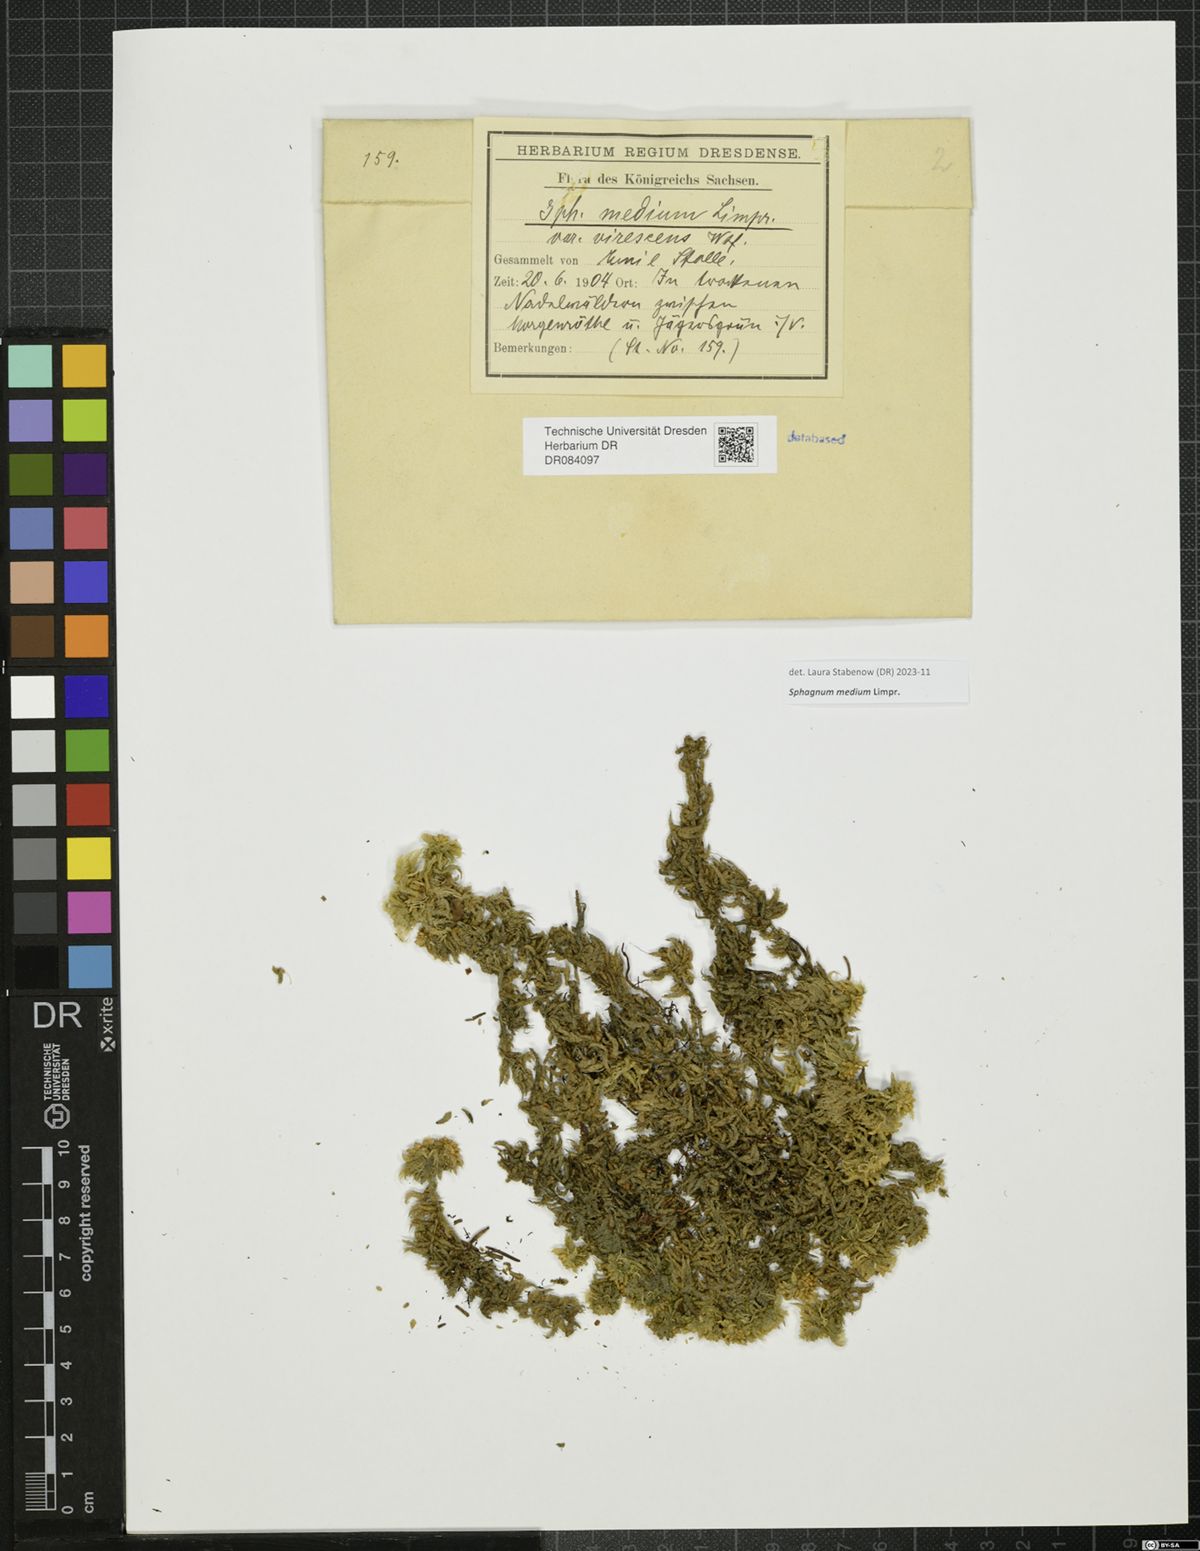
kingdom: Plantae
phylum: Bryophyta
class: Sphagnopsida
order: Sphagnales
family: Sphagnaceae
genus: Sphagnum
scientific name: Sphagnum medium
